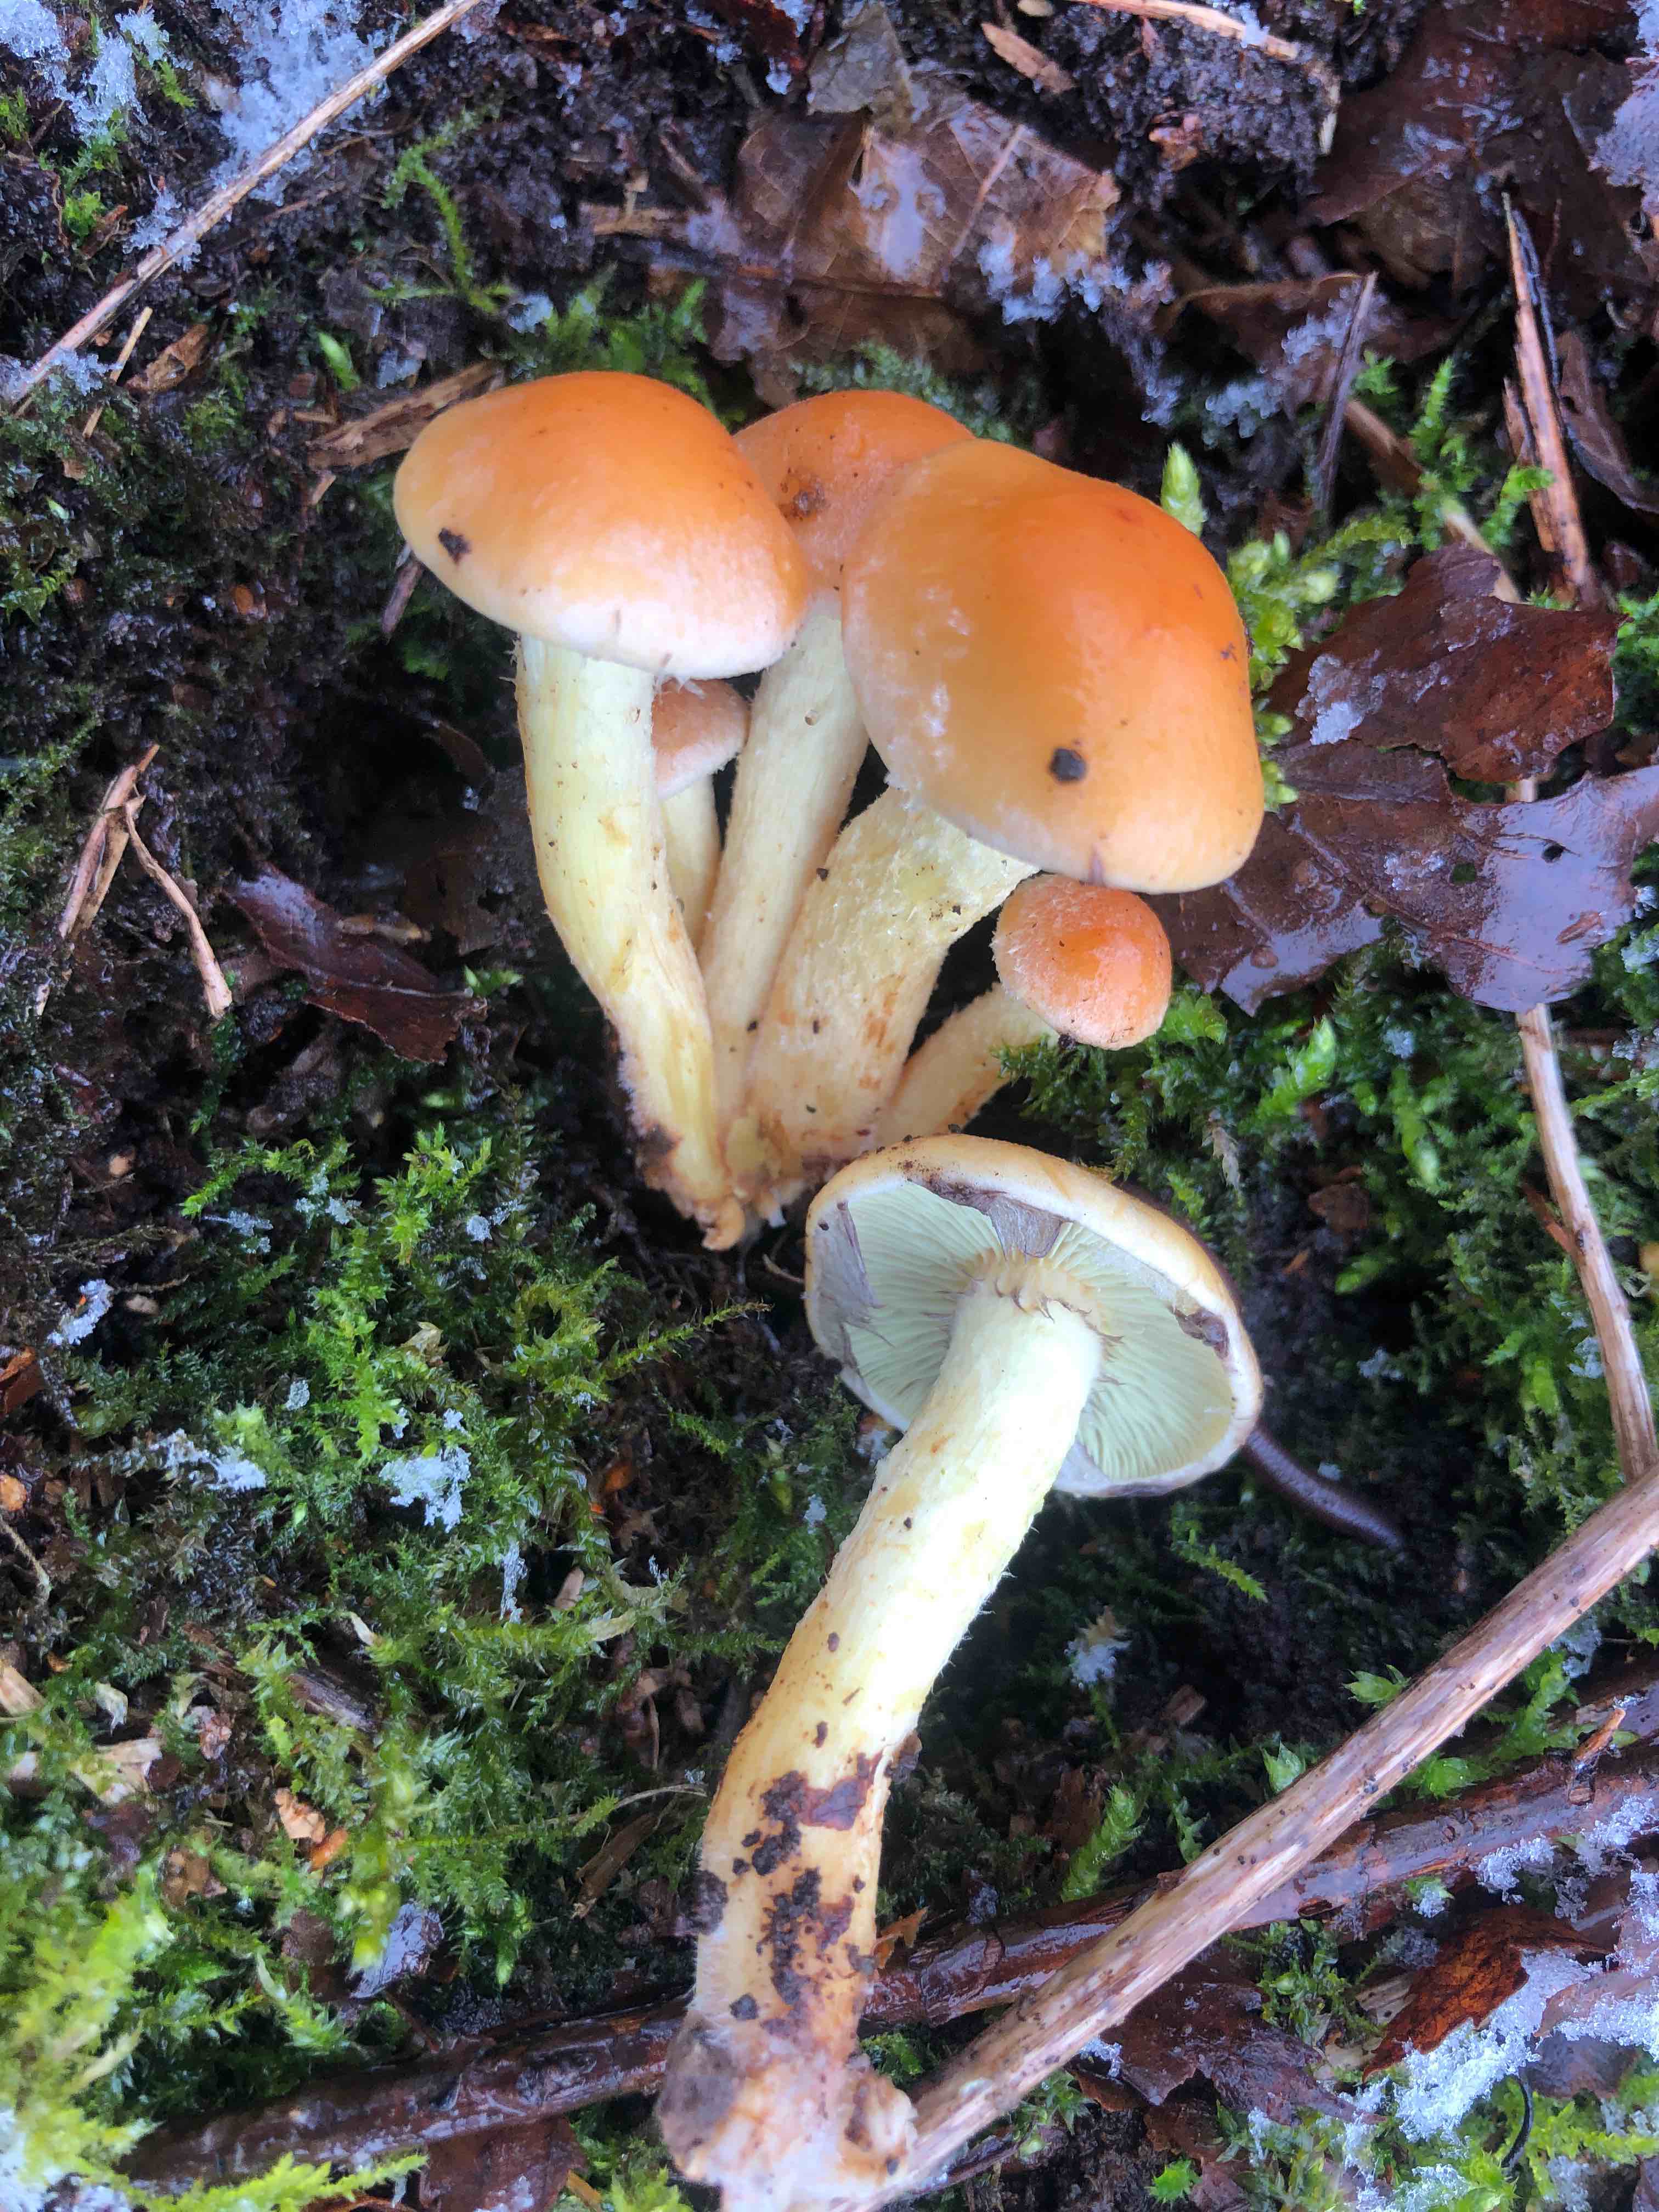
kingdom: Fungi
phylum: Basidiomycota
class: Agaricomycetes
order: Agaricales
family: Strophariaceae
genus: Hypholoma
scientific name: Hypholoma fasciculare
